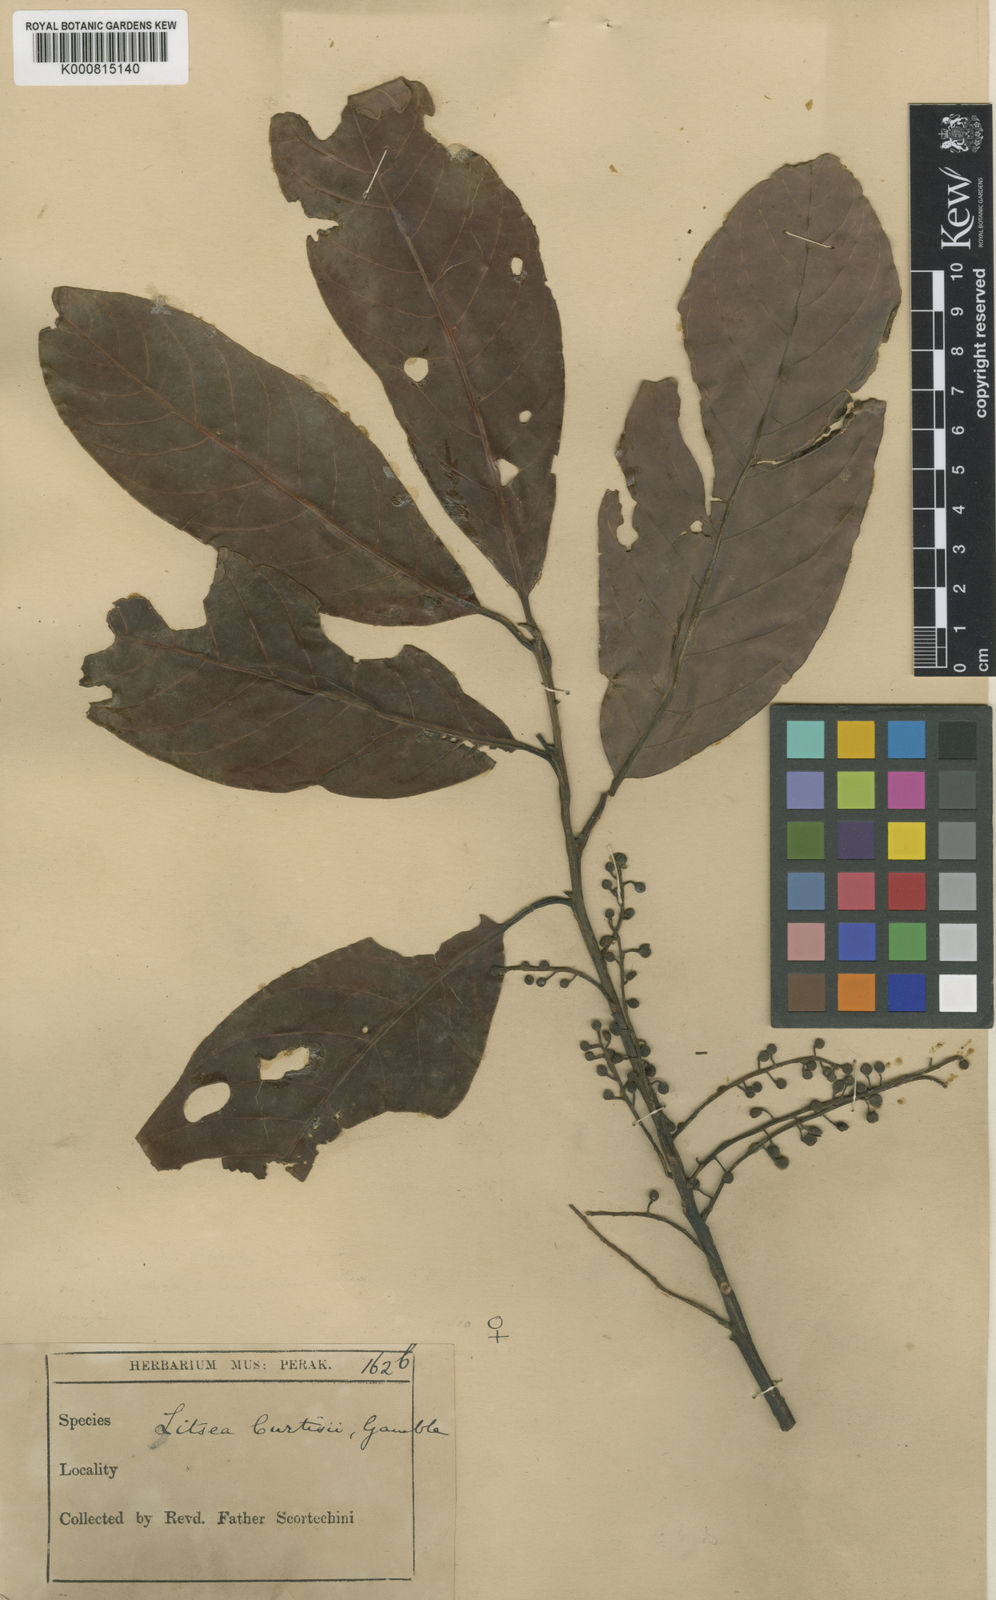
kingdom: Plantae
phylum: Tracheophyta
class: Magnoliopsida
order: Laurales
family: Lauraceae
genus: Litsea
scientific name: Litsea curtisii
